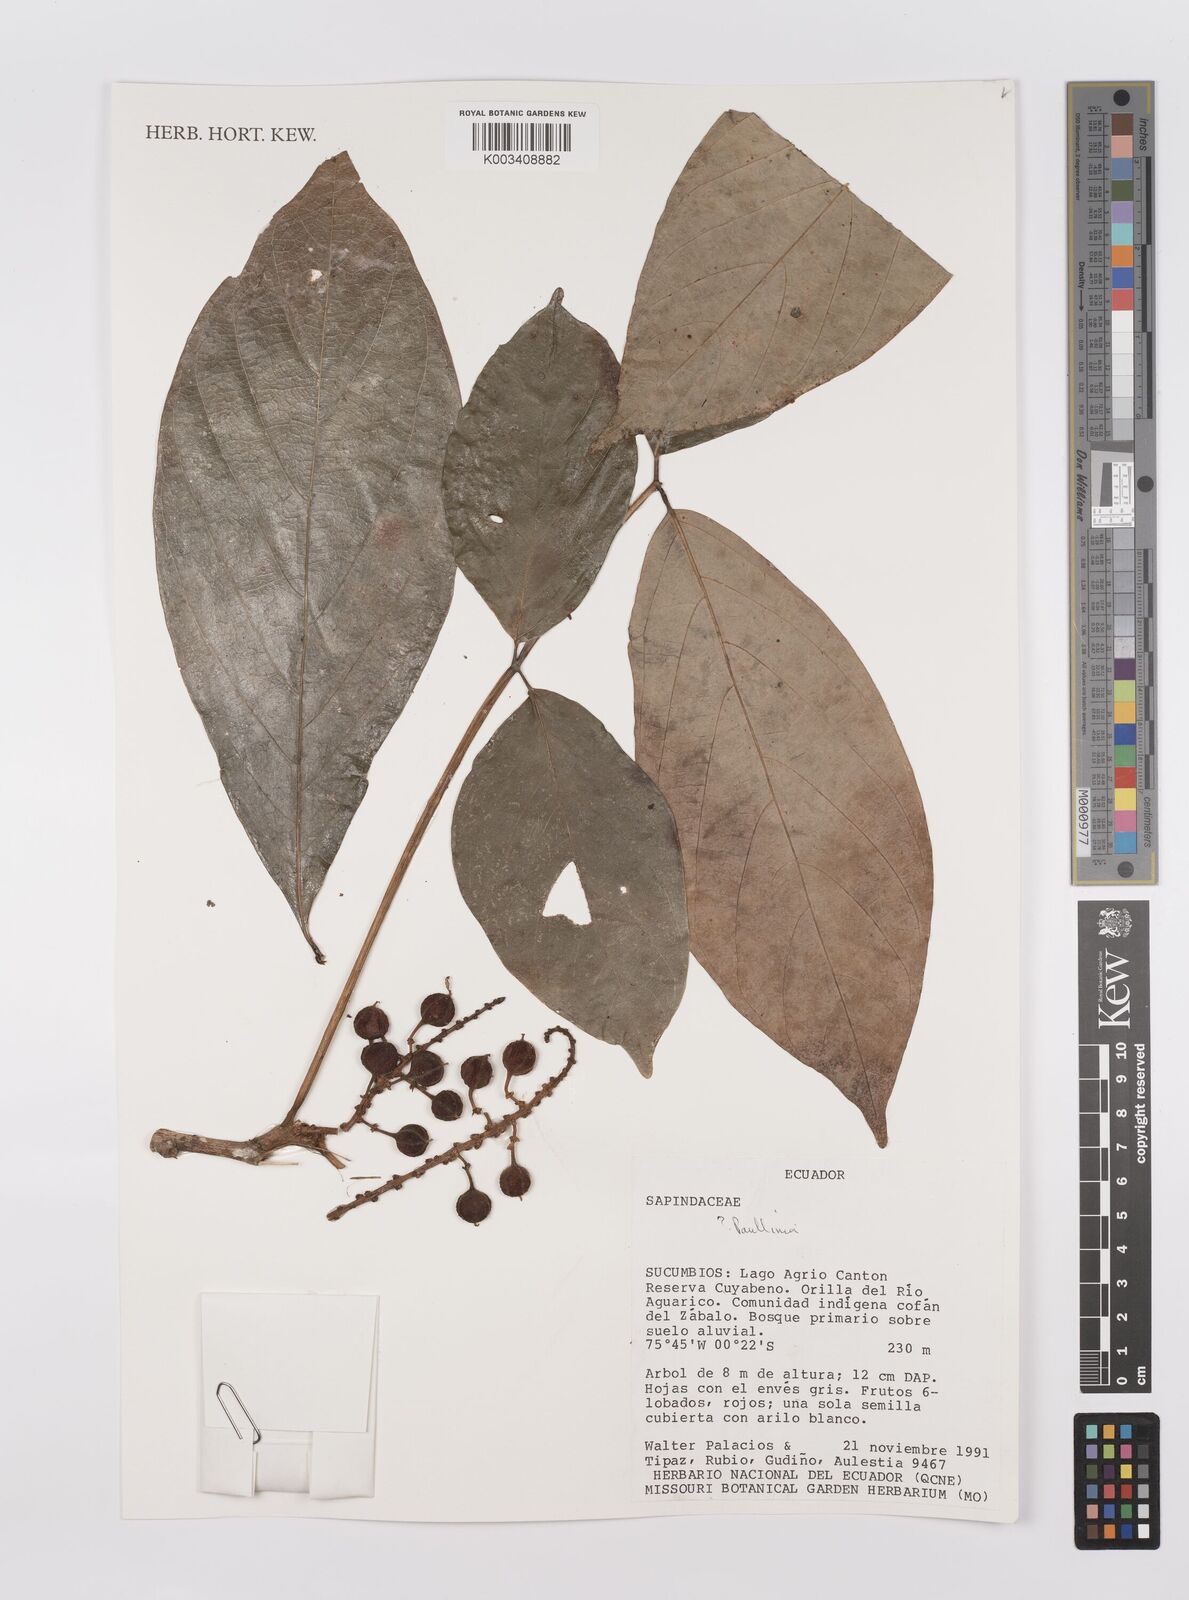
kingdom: Plantae
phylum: Tracheophyta
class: Magnoliopsida
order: Sapindales
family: Sapindaceae
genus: Paullinia
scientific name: Paullinia
